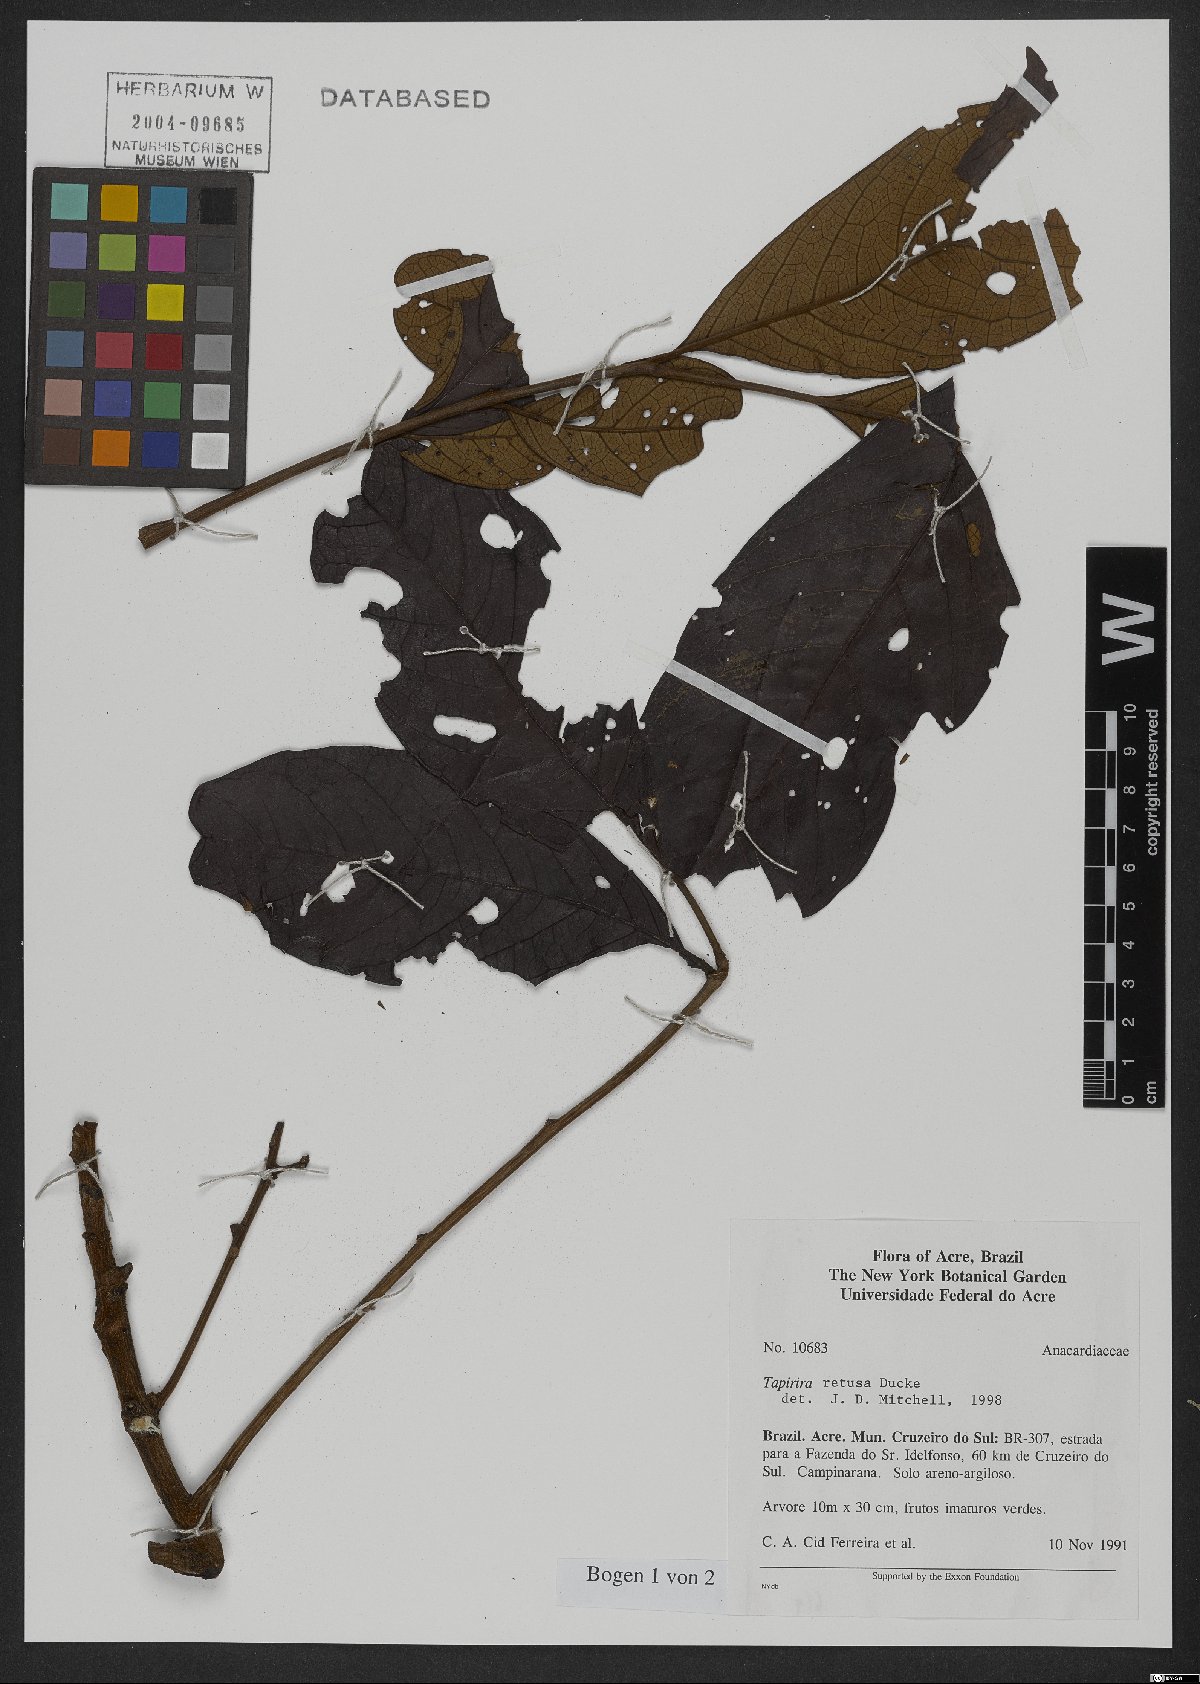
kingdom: Plantae
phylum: Tracheophyta
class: Magnoliopsida
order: Sapindales
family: Anacardiaceae
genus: Tapirira
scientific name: Tapirira retusa
